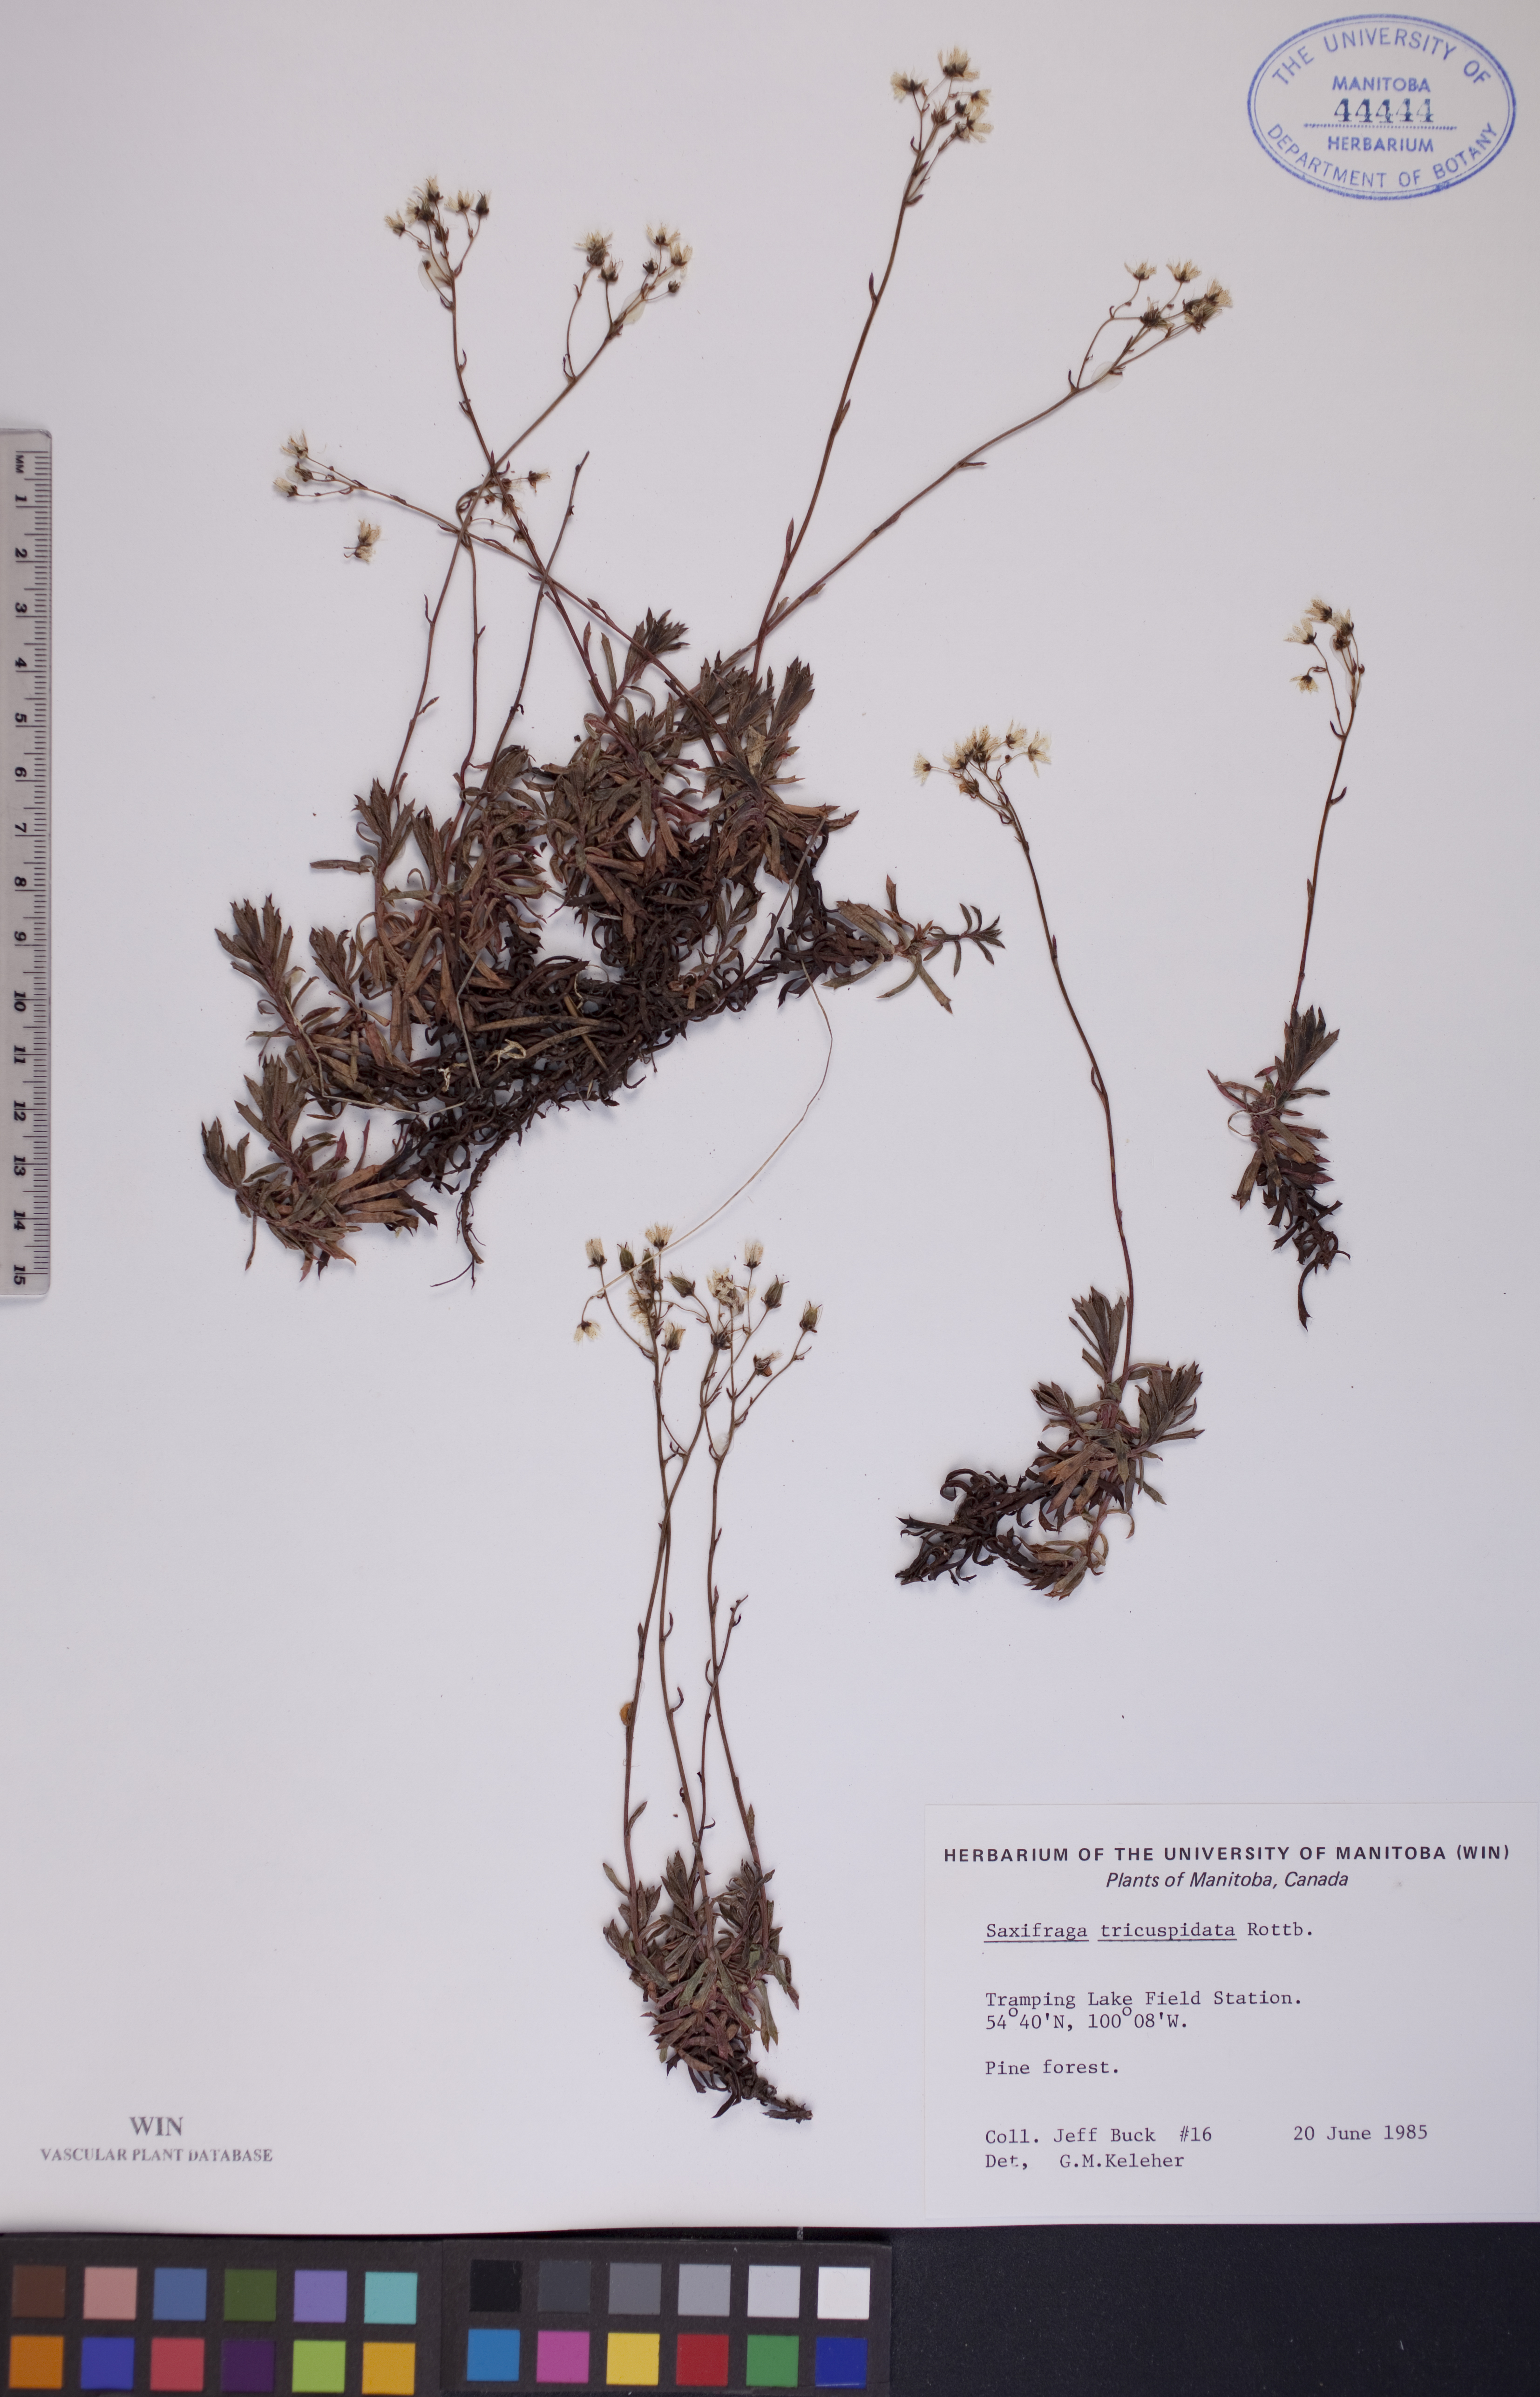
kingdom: Plantae
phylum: Tracheophyta
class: Magnoliopsida
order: Saxifragales
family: Saxifragaceae
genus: Saxifraga
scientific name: Saxifraga tricuspidata
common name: Prickly saxifrage
